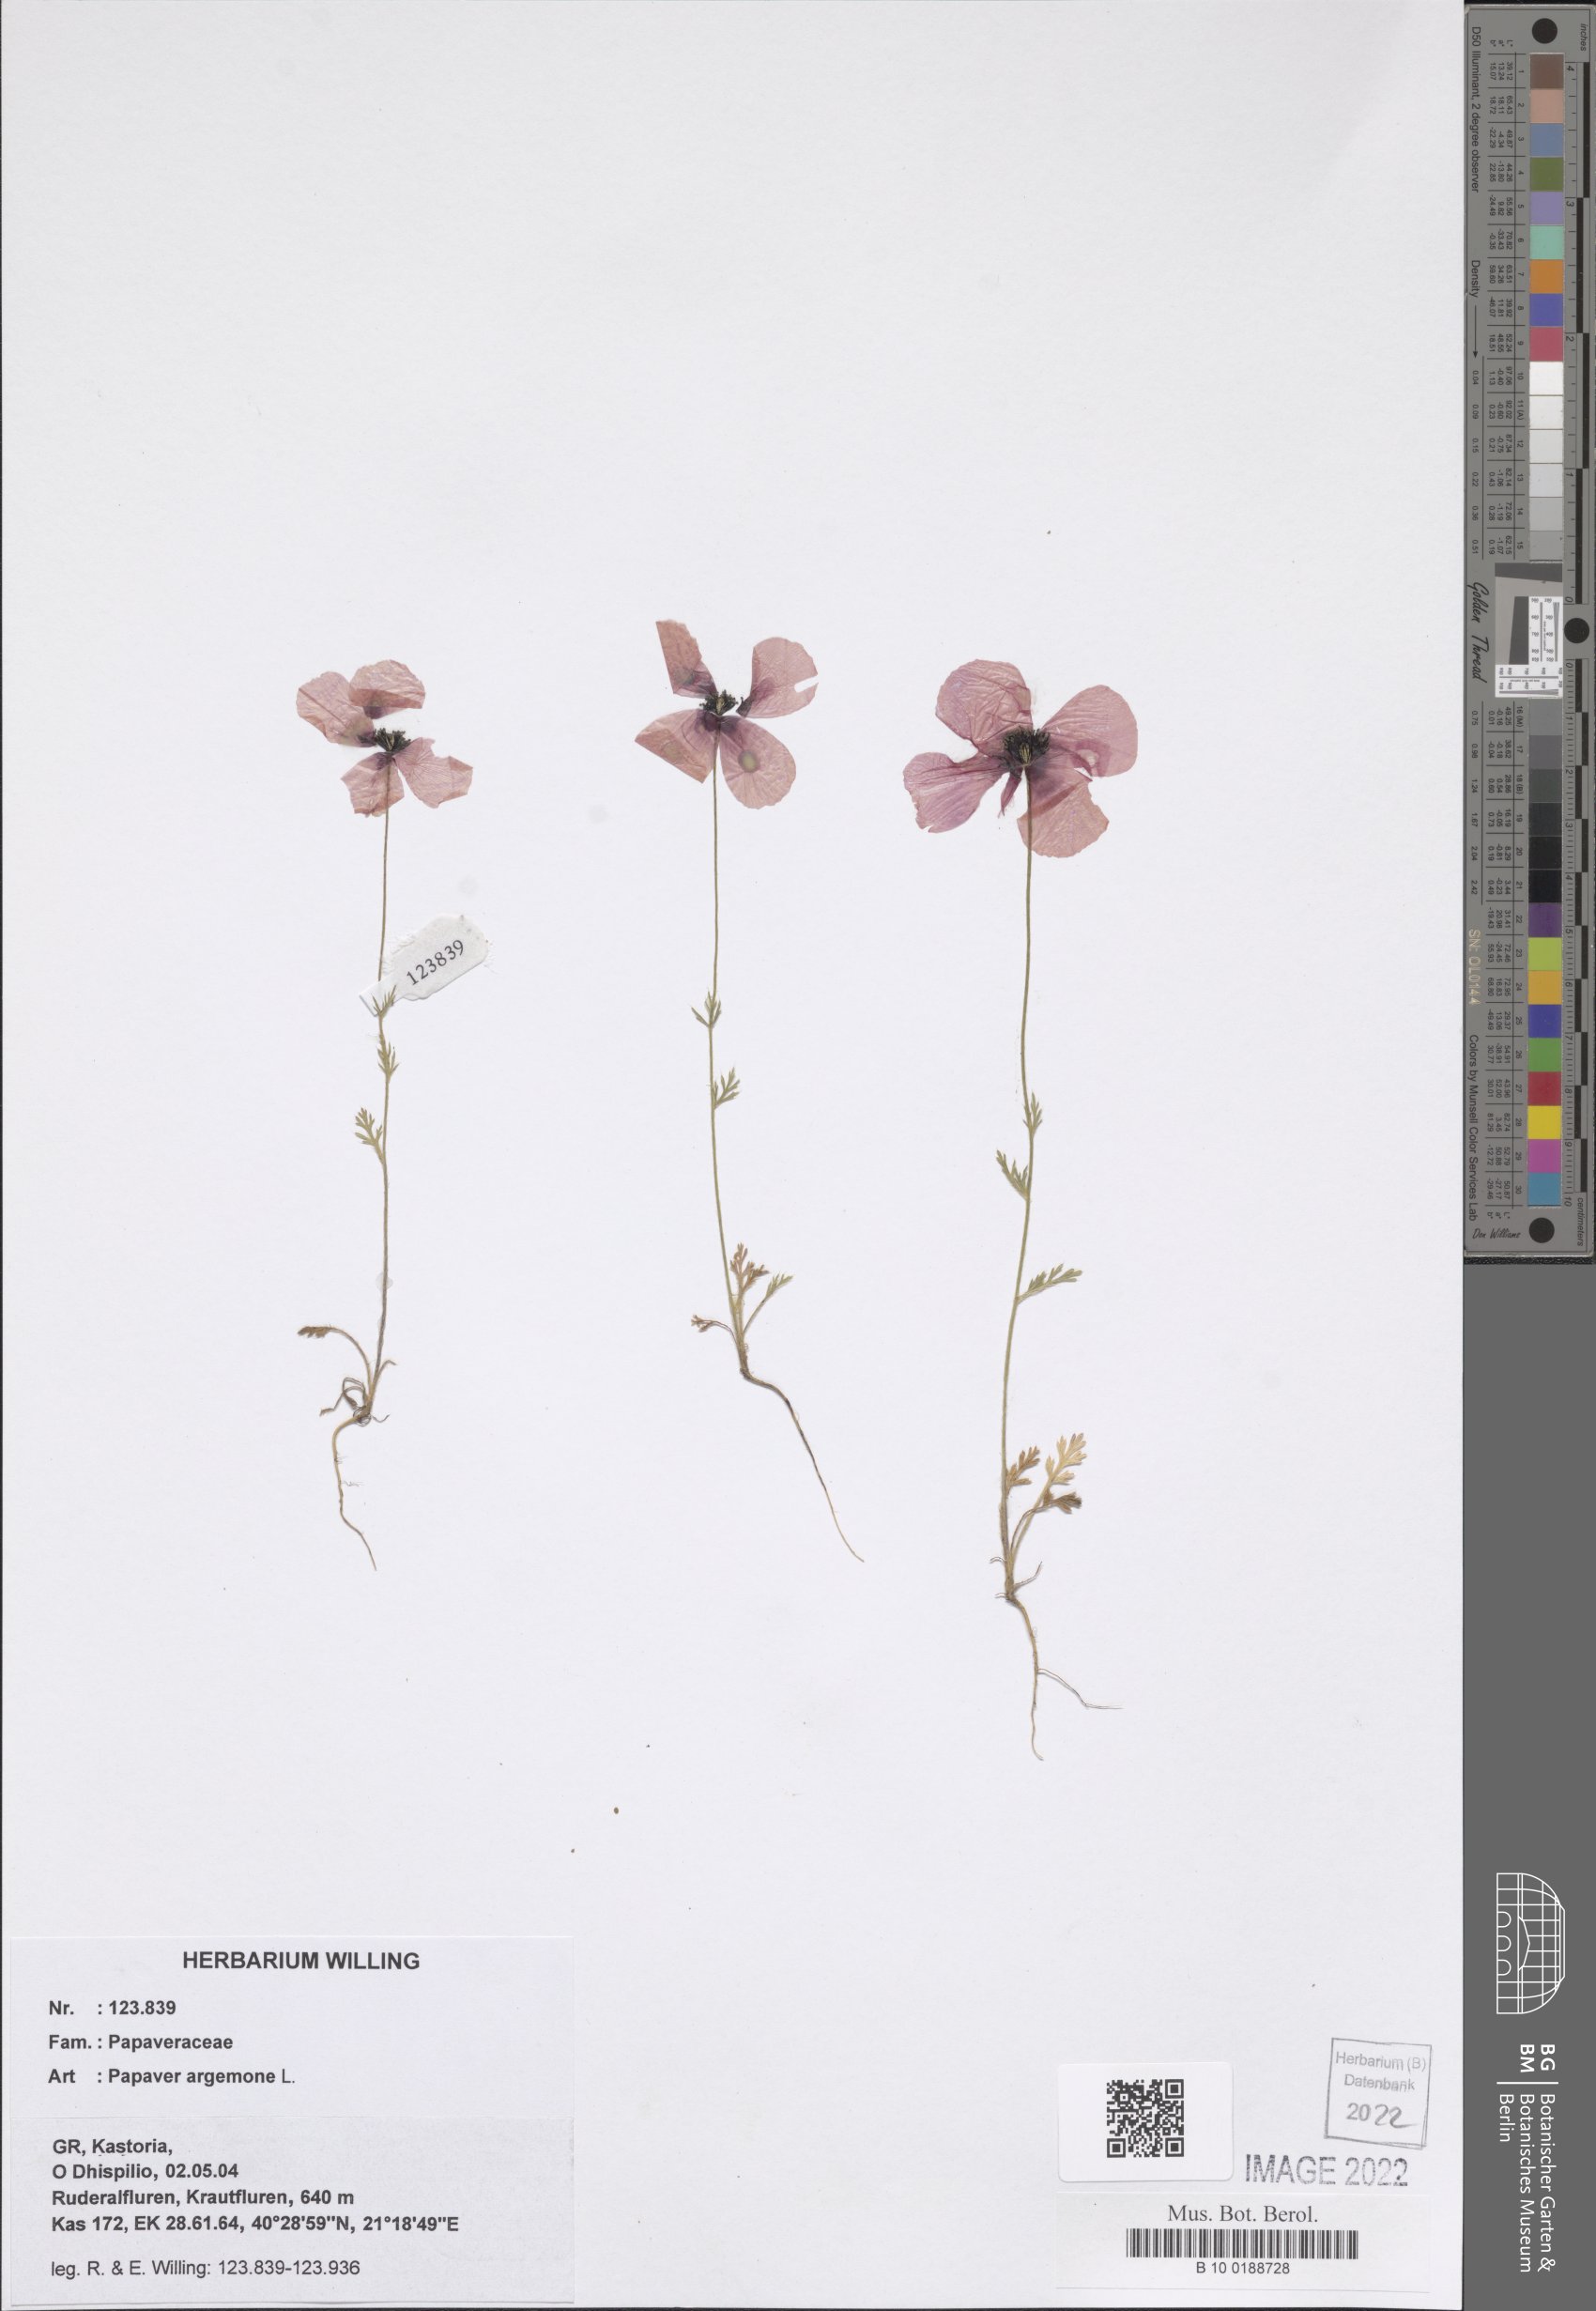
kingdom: Plantae
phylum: Tracheophyta
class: Magnoliopsida
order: Ranunculales
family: Papaveraceae
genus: Roemeria
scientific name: Roemeria argemone
